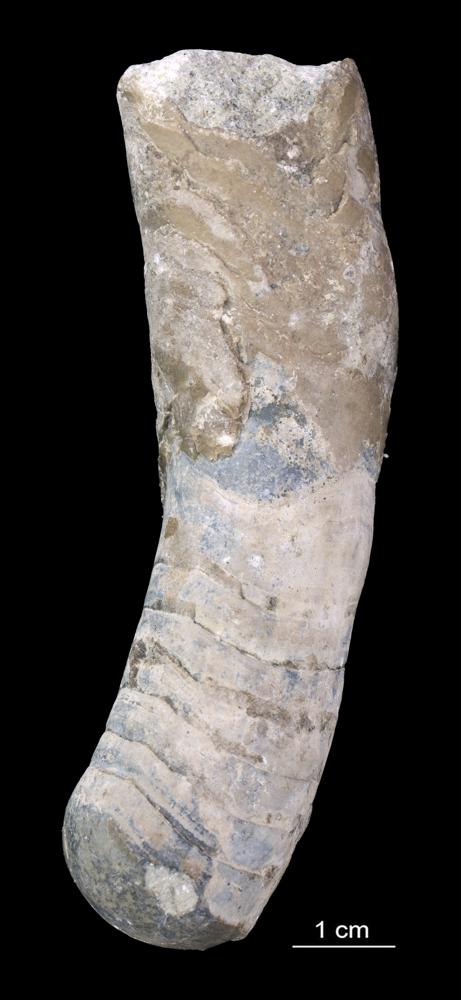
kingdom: Animalia
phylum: Mollusca
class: Cephalopoda
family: Tarphyceratidae
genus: Planctoceras
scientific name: Planctoceras
